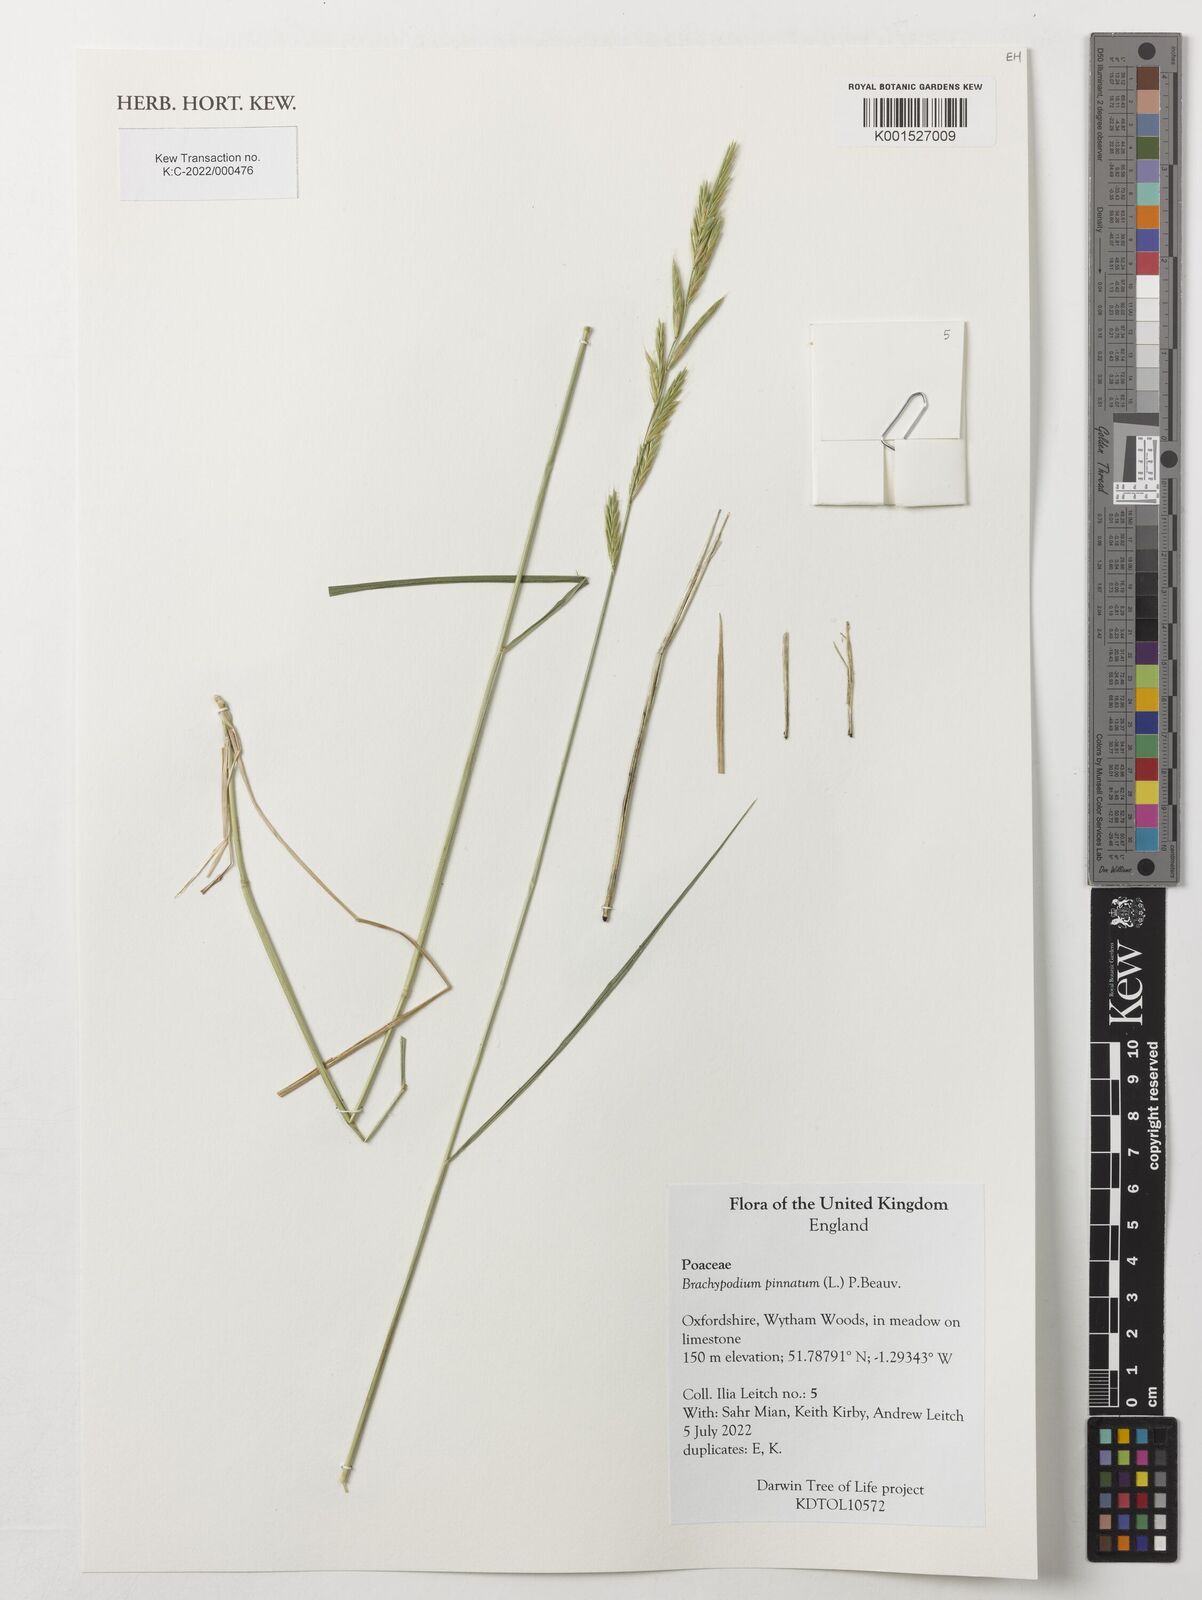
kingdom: Plantae
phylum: Tracheophyta
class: Liliopsida
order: Poales
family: Poaceae
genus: Brachypodium
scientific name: Brachypodium pinnatum
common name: Tor grass
